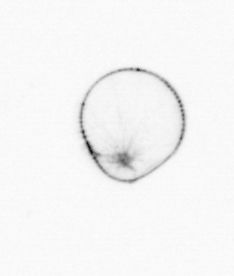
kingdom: Chromista
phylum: Myzozoa
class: Dinophyceae
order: Noctilucales
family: Noctilucaceae
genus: Noctiluca
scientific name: Noctiluca scintillans
